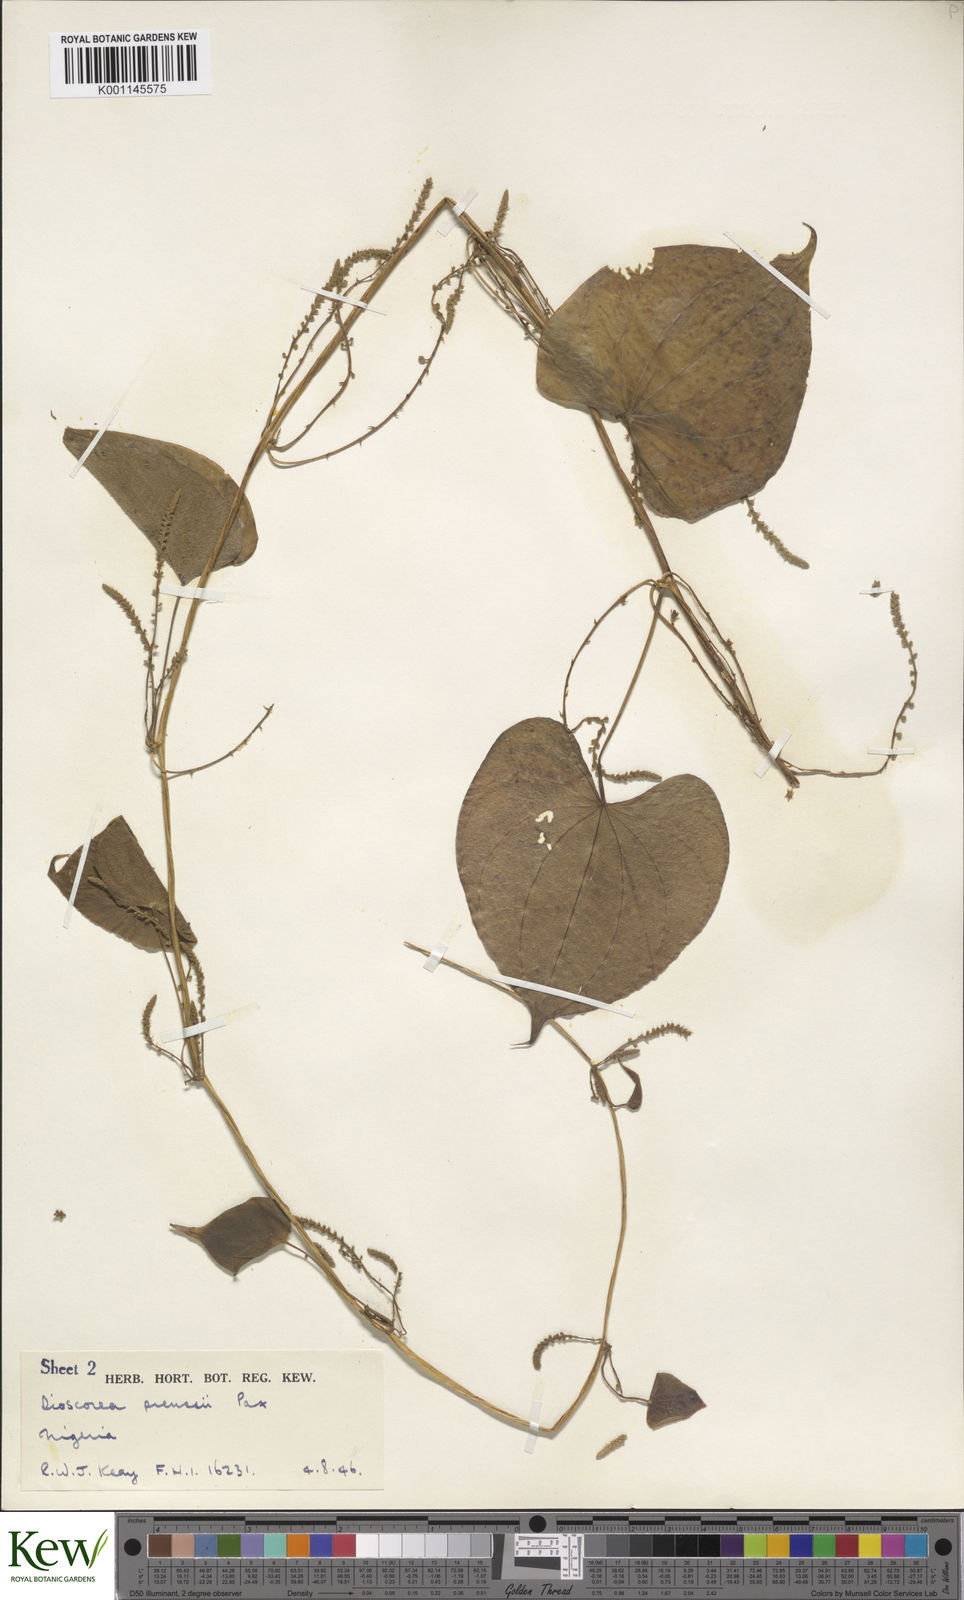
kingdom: Plantae
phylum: Tracheophyta
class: Liliopsida
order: Dioscoreales
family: Dioscoreaceae
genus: Dioscorea
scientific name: Dioscorea preussii
